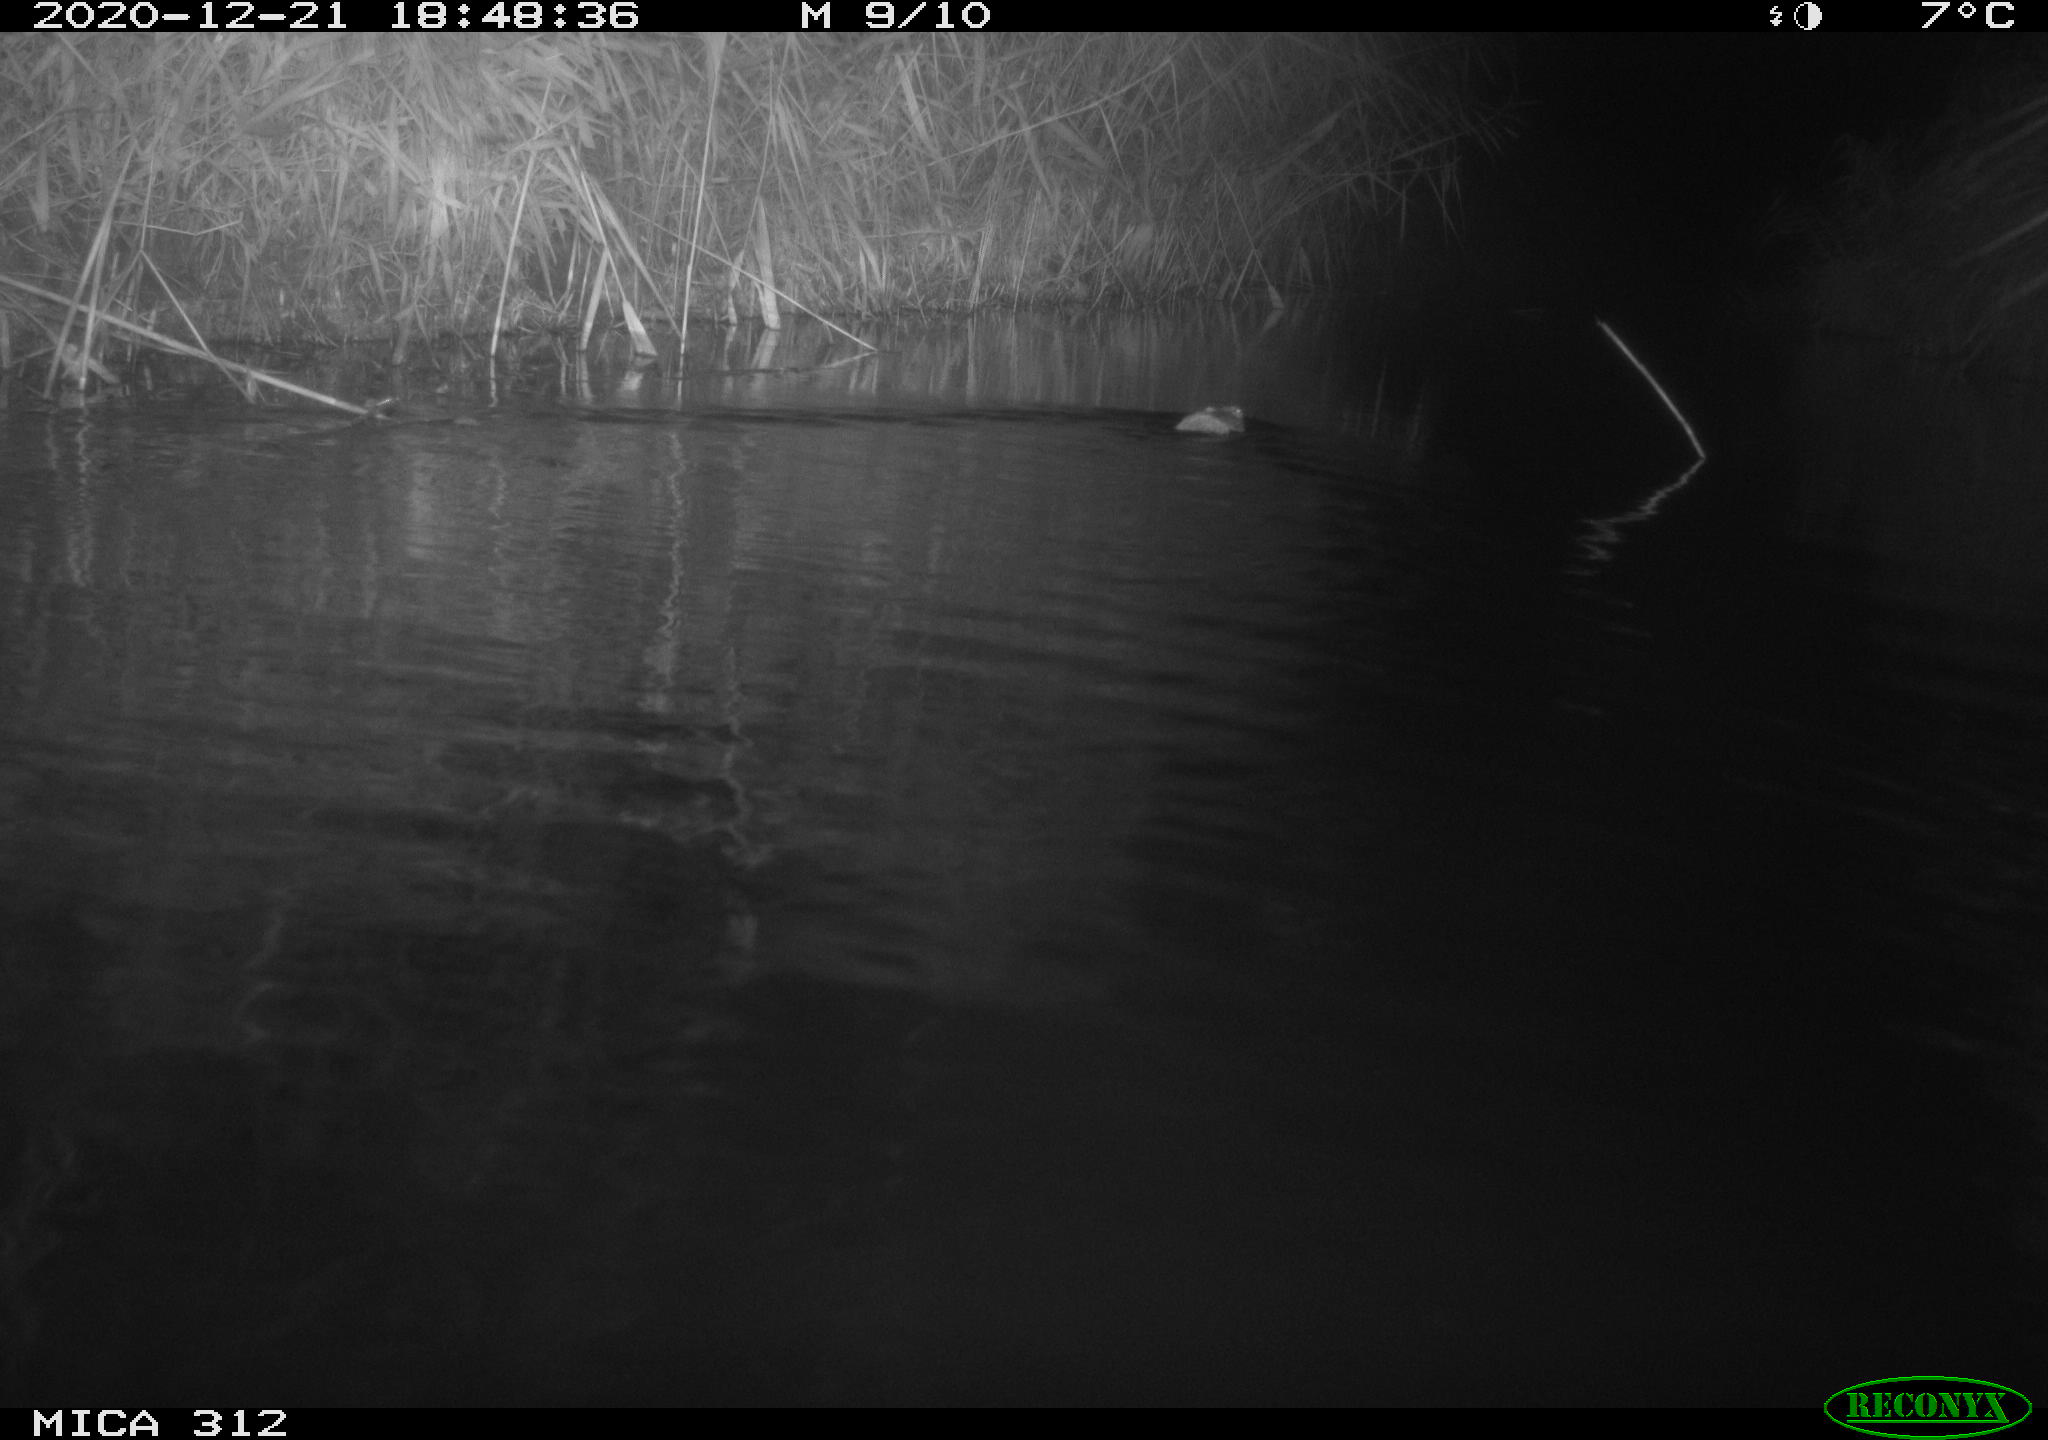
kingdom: Animalia
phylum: Chordata
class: Mammalia
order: Rodentia
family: Muridae
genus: Rattus
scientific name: Rattus norvegicus
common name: Brown rat
